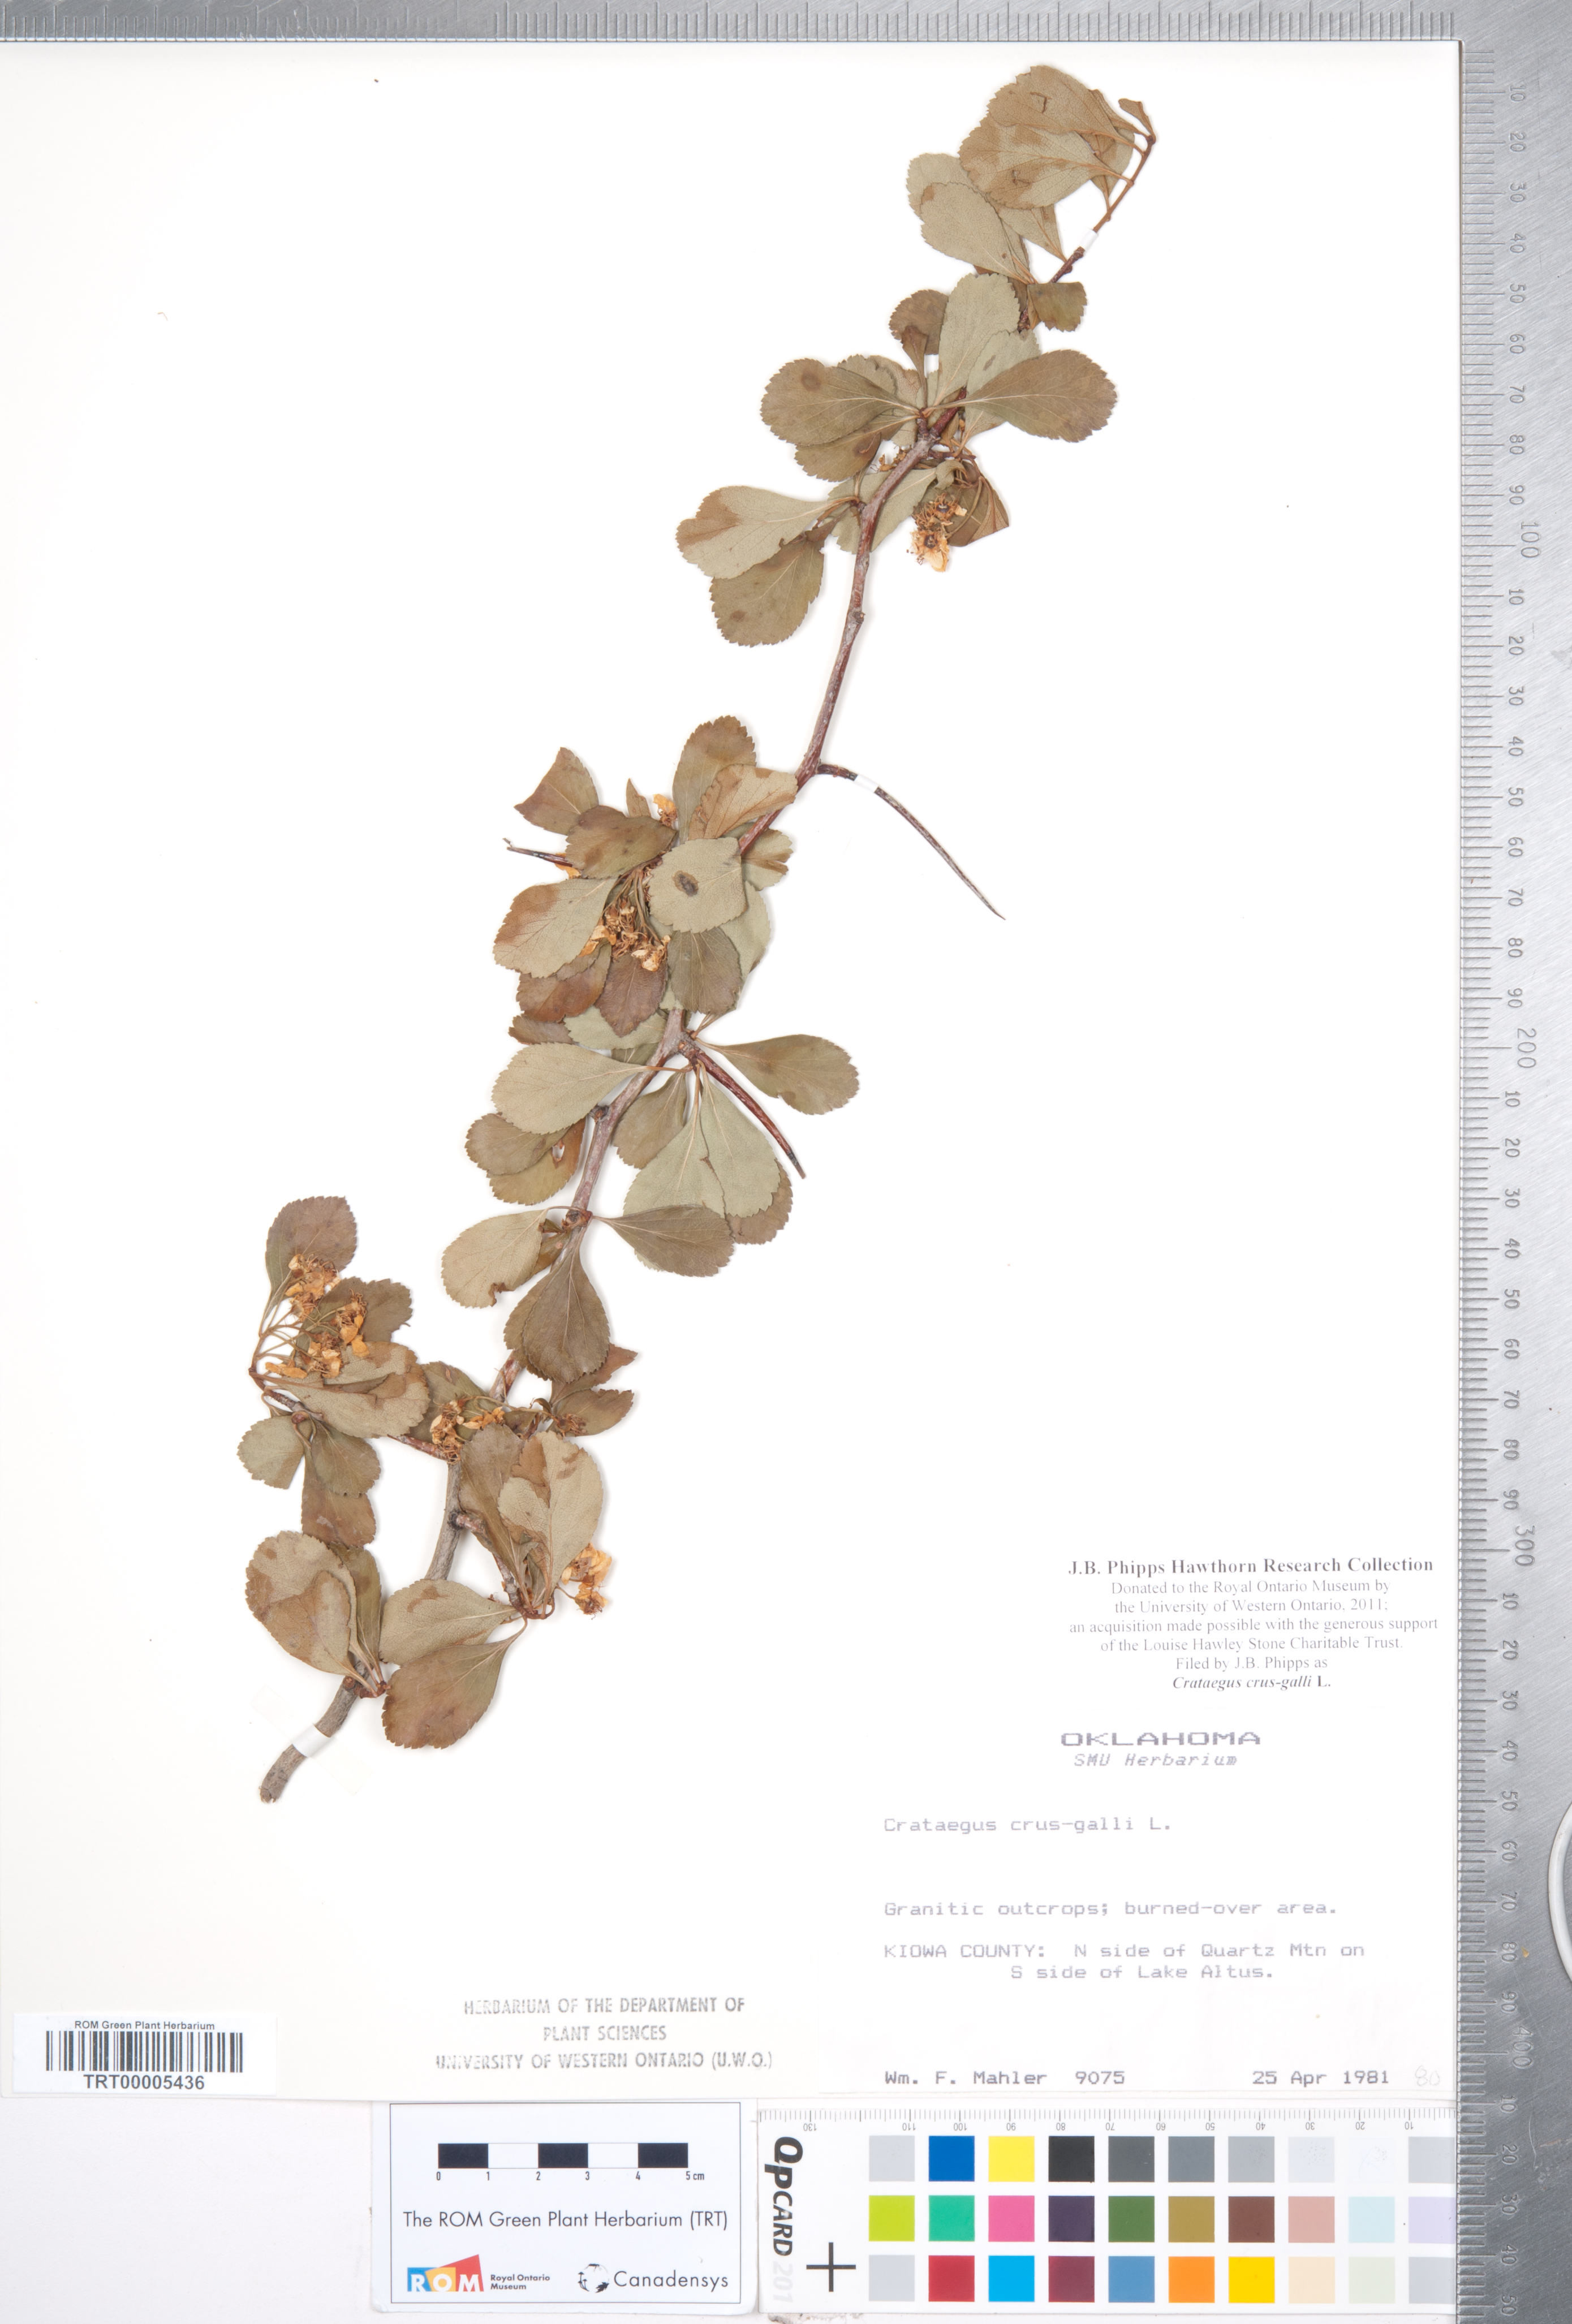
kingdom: Plantae
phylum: Tracheophyta
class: Magnoliopsida
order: Rosales
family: Rosaceae
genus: Crataegus
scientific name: Crataegus crus-galli
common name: Cockspurthorn
